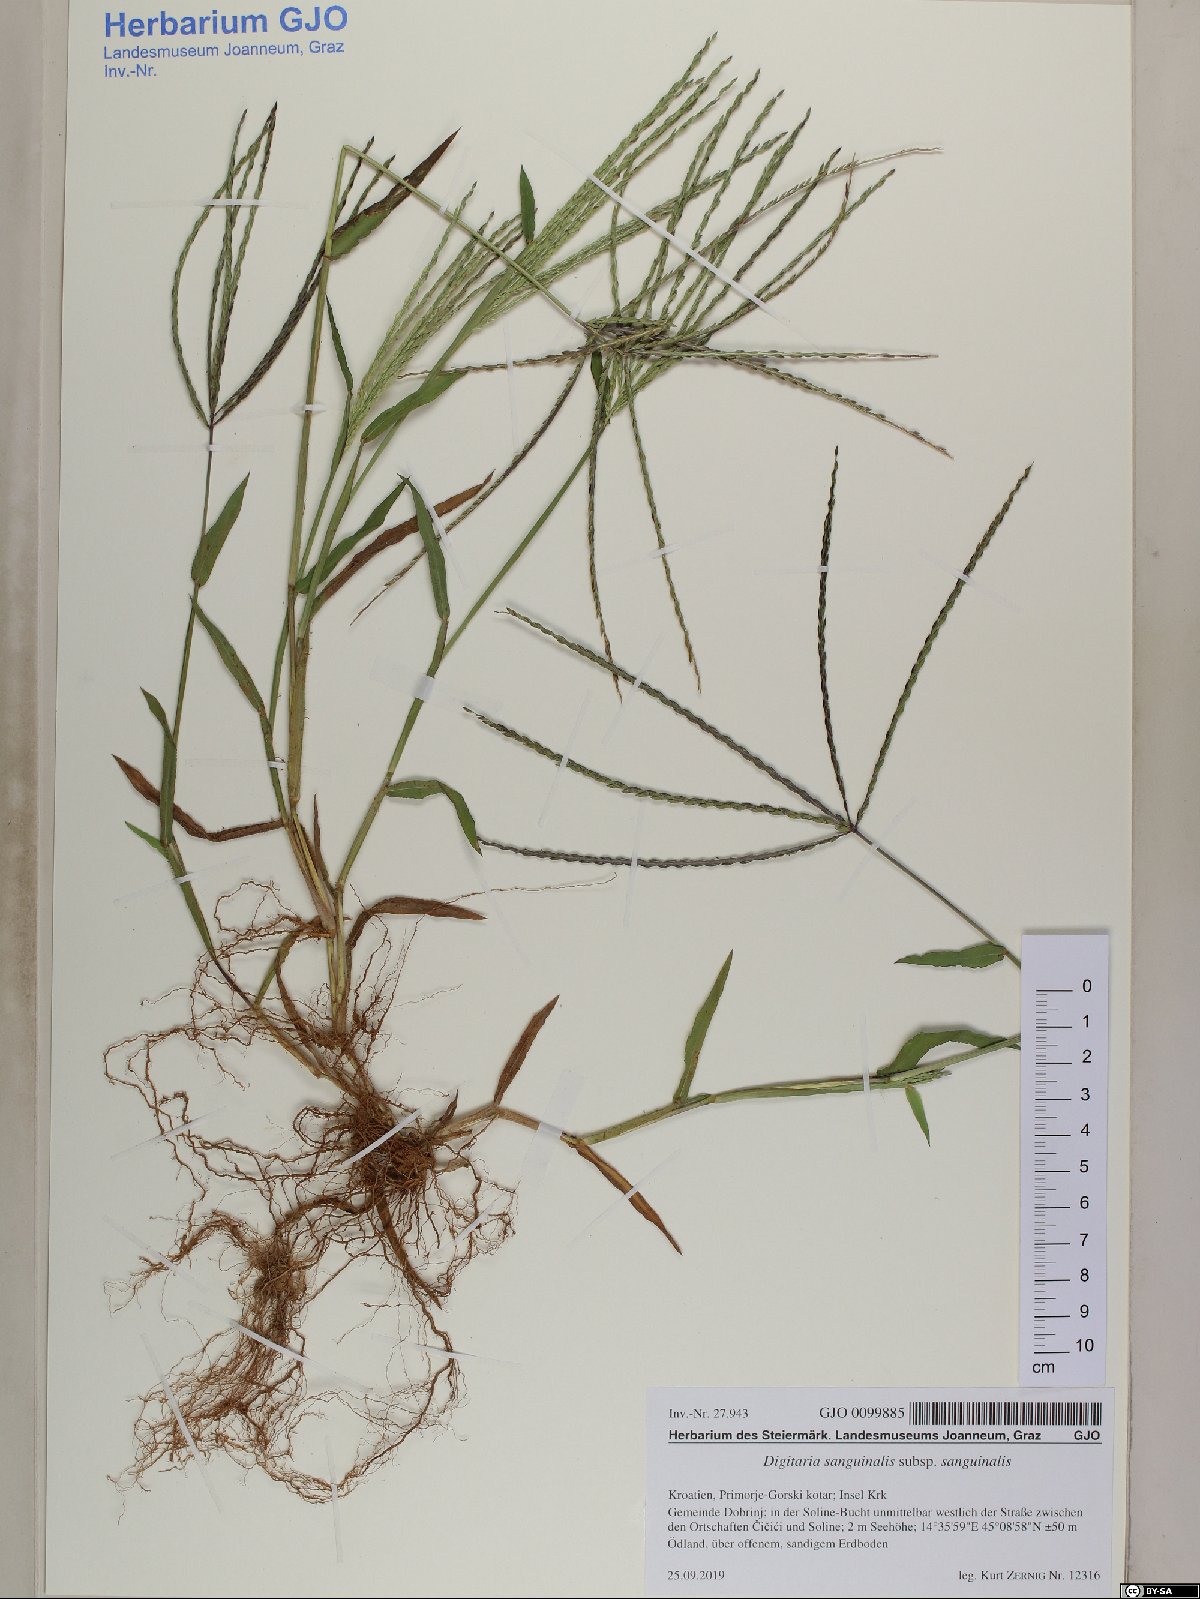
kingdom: Plantae
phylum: Tracheophyta
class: Liliopsida
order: Poales
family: Poaceae
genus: Digitaria
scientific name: Digitaria sanguinalis
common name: Hairy crabgrass
